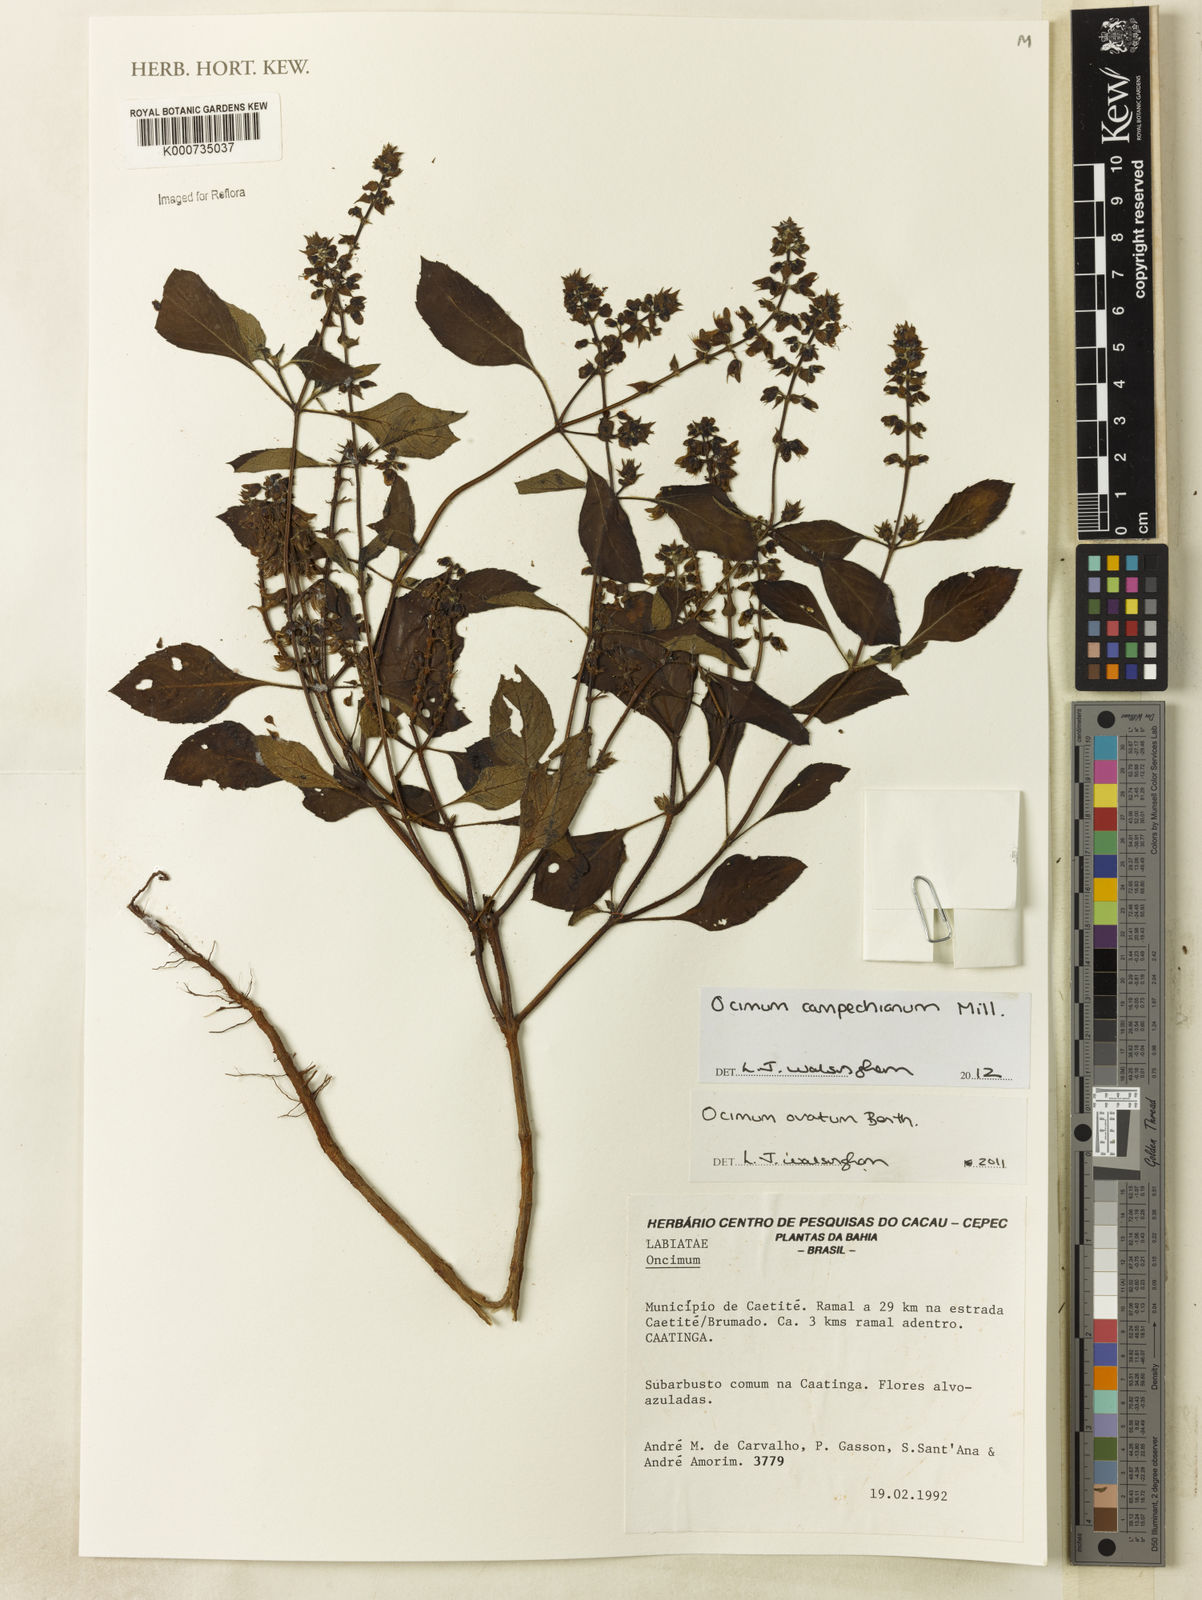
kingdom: Plantae
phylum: Tracheophyta
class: Magnoliopsida
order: Lamiales
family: Lamiaceae
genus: Ocimum
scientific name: Ocimum
